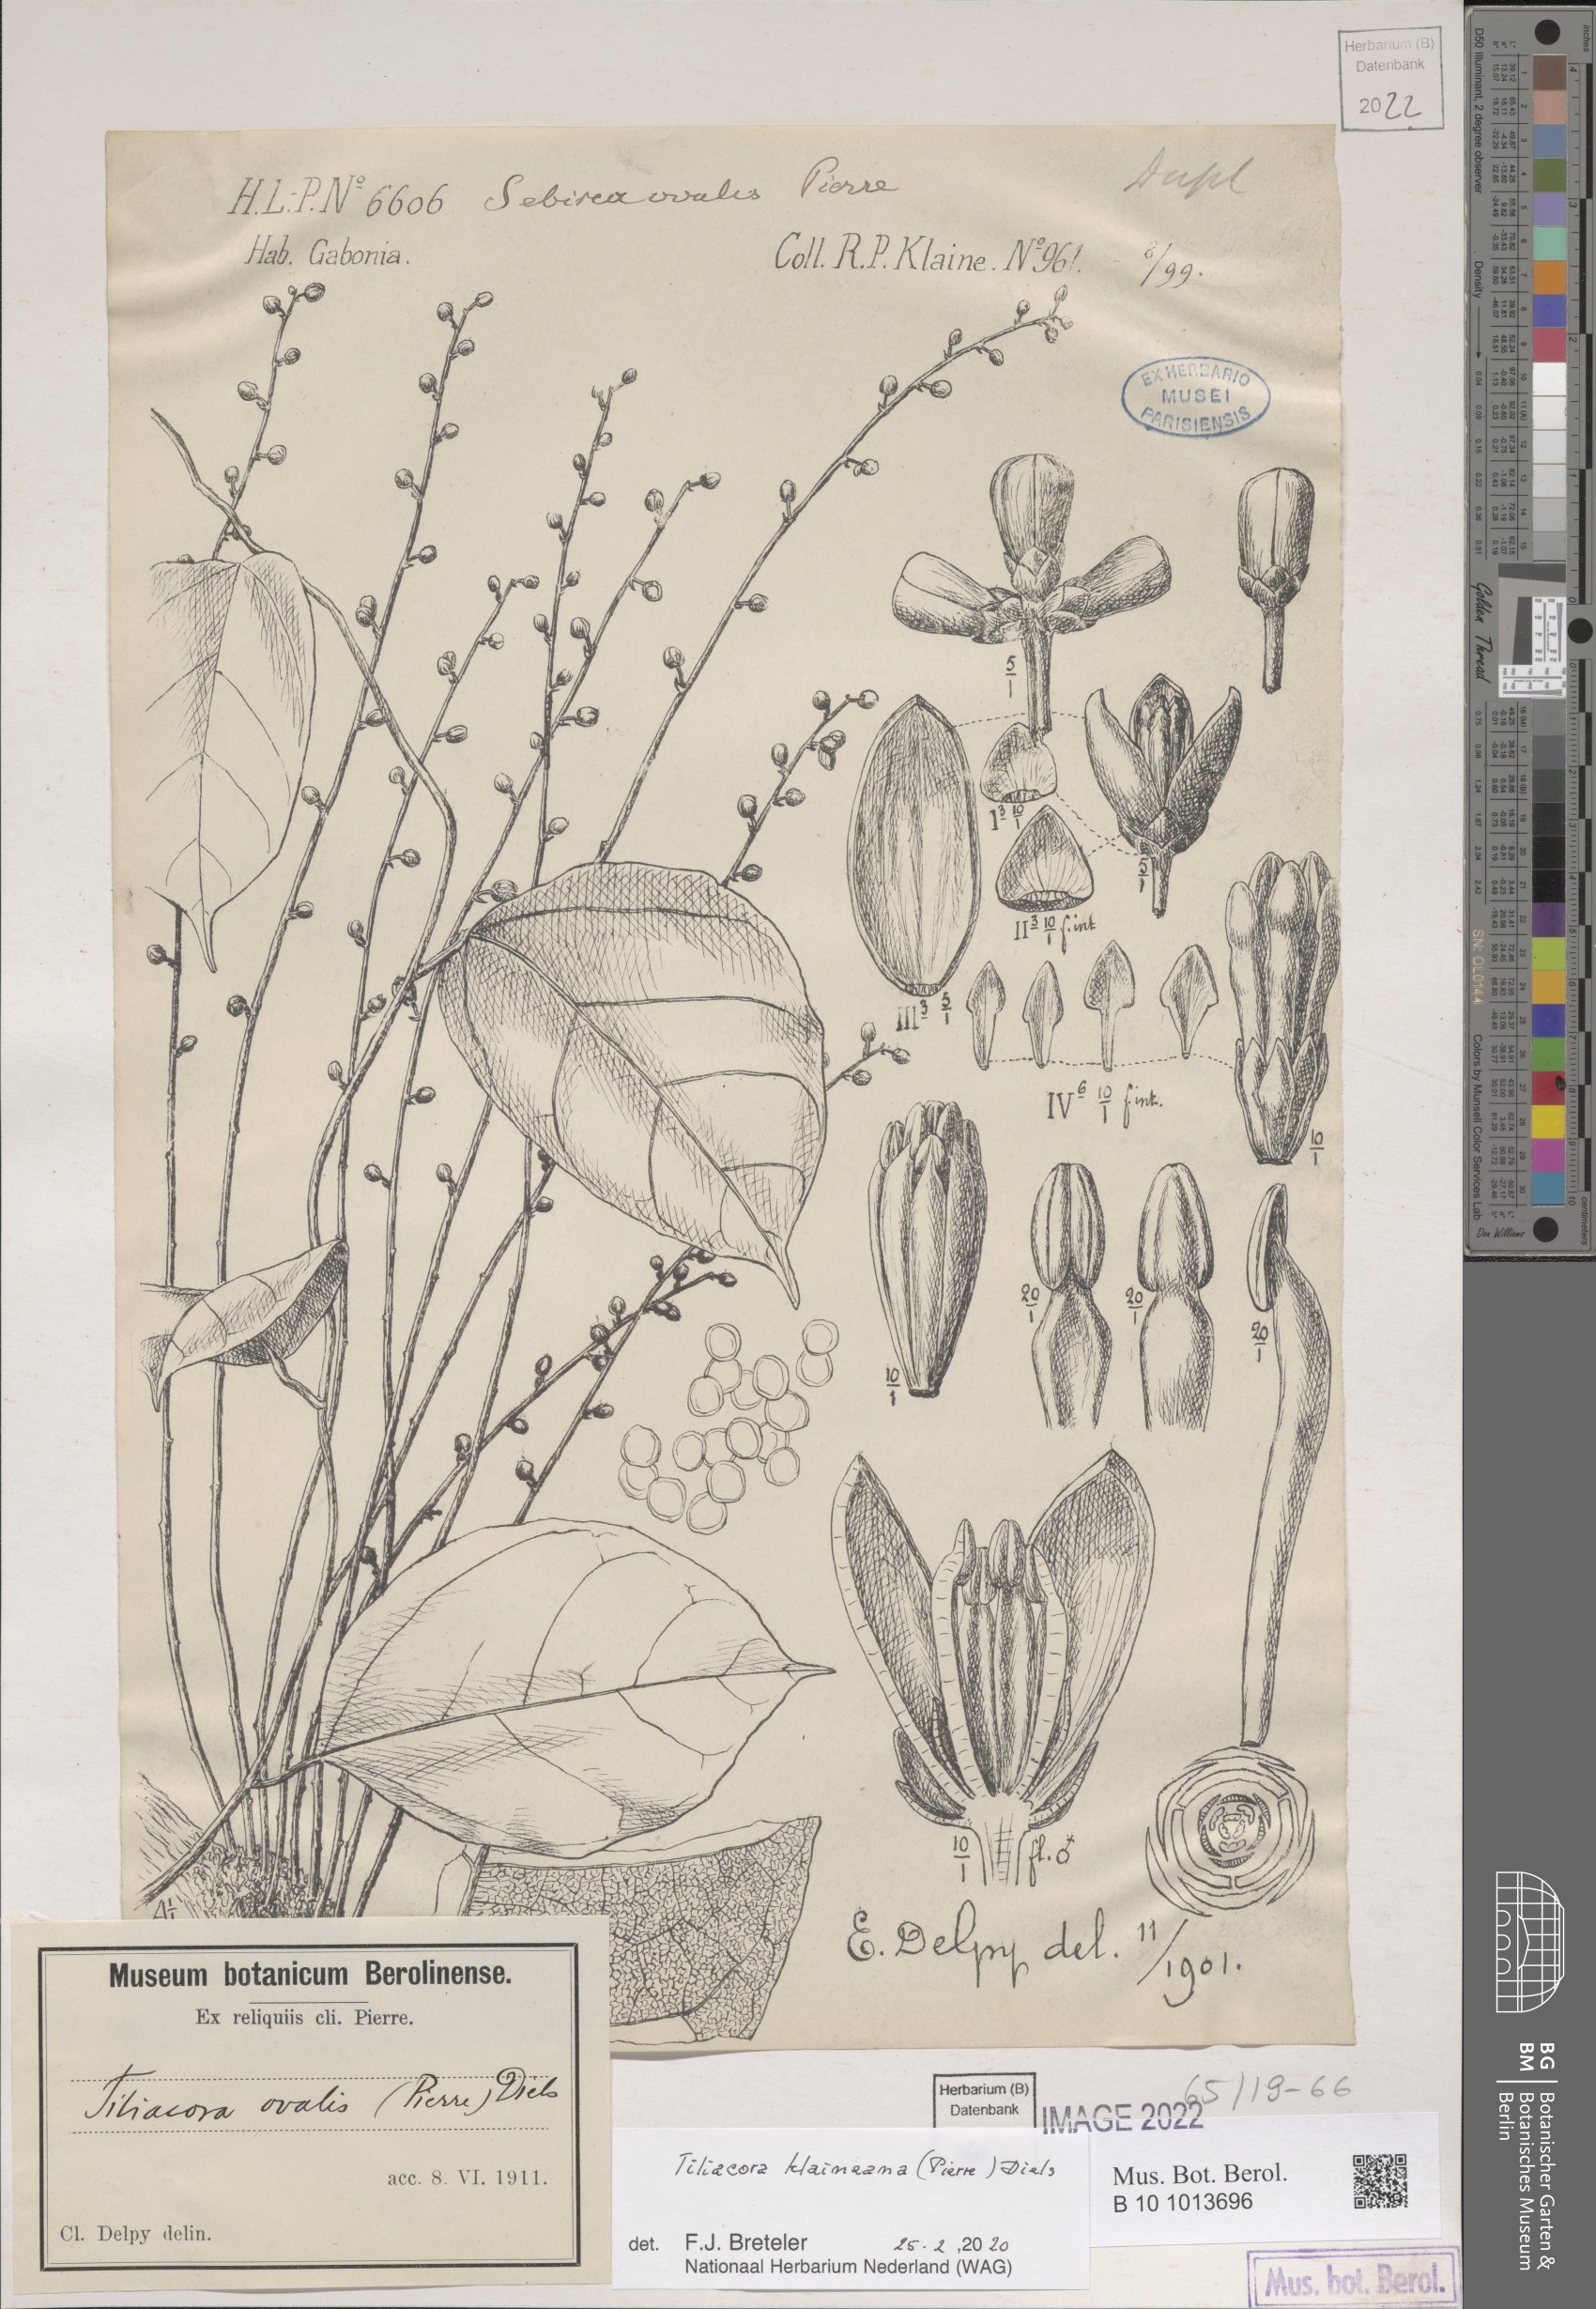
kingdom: Plantae
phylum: Tracheophyta
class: Magnoliopsida
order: Ranunculales
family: Menispermaceae
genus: Tiliacora
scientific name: Tiliacora klaineana
